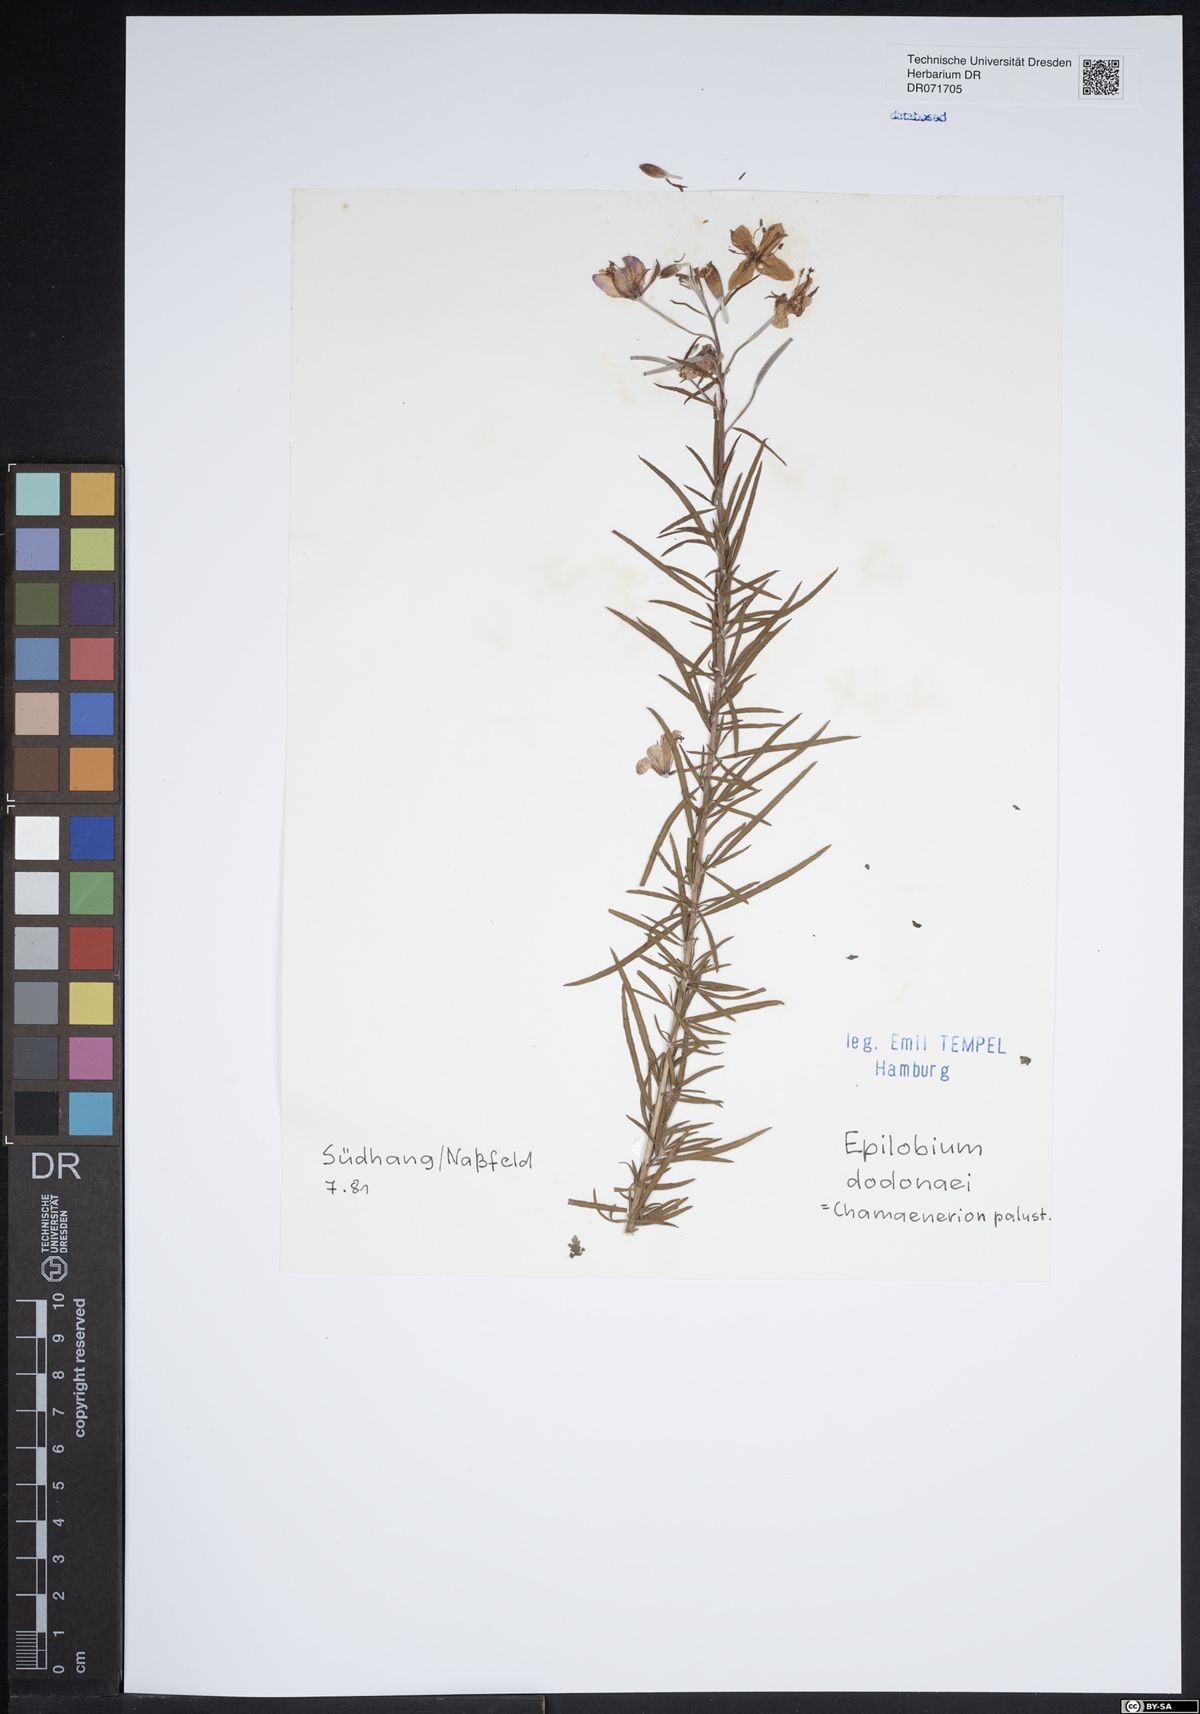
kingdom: Plantae
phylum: Tracheophyta
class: Magnoliopsida
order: Myrtales
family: Onagraceae
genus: Chamaenerion
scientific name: Chamaenerion dodonaei
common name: Rosemary-leaved willowherb
